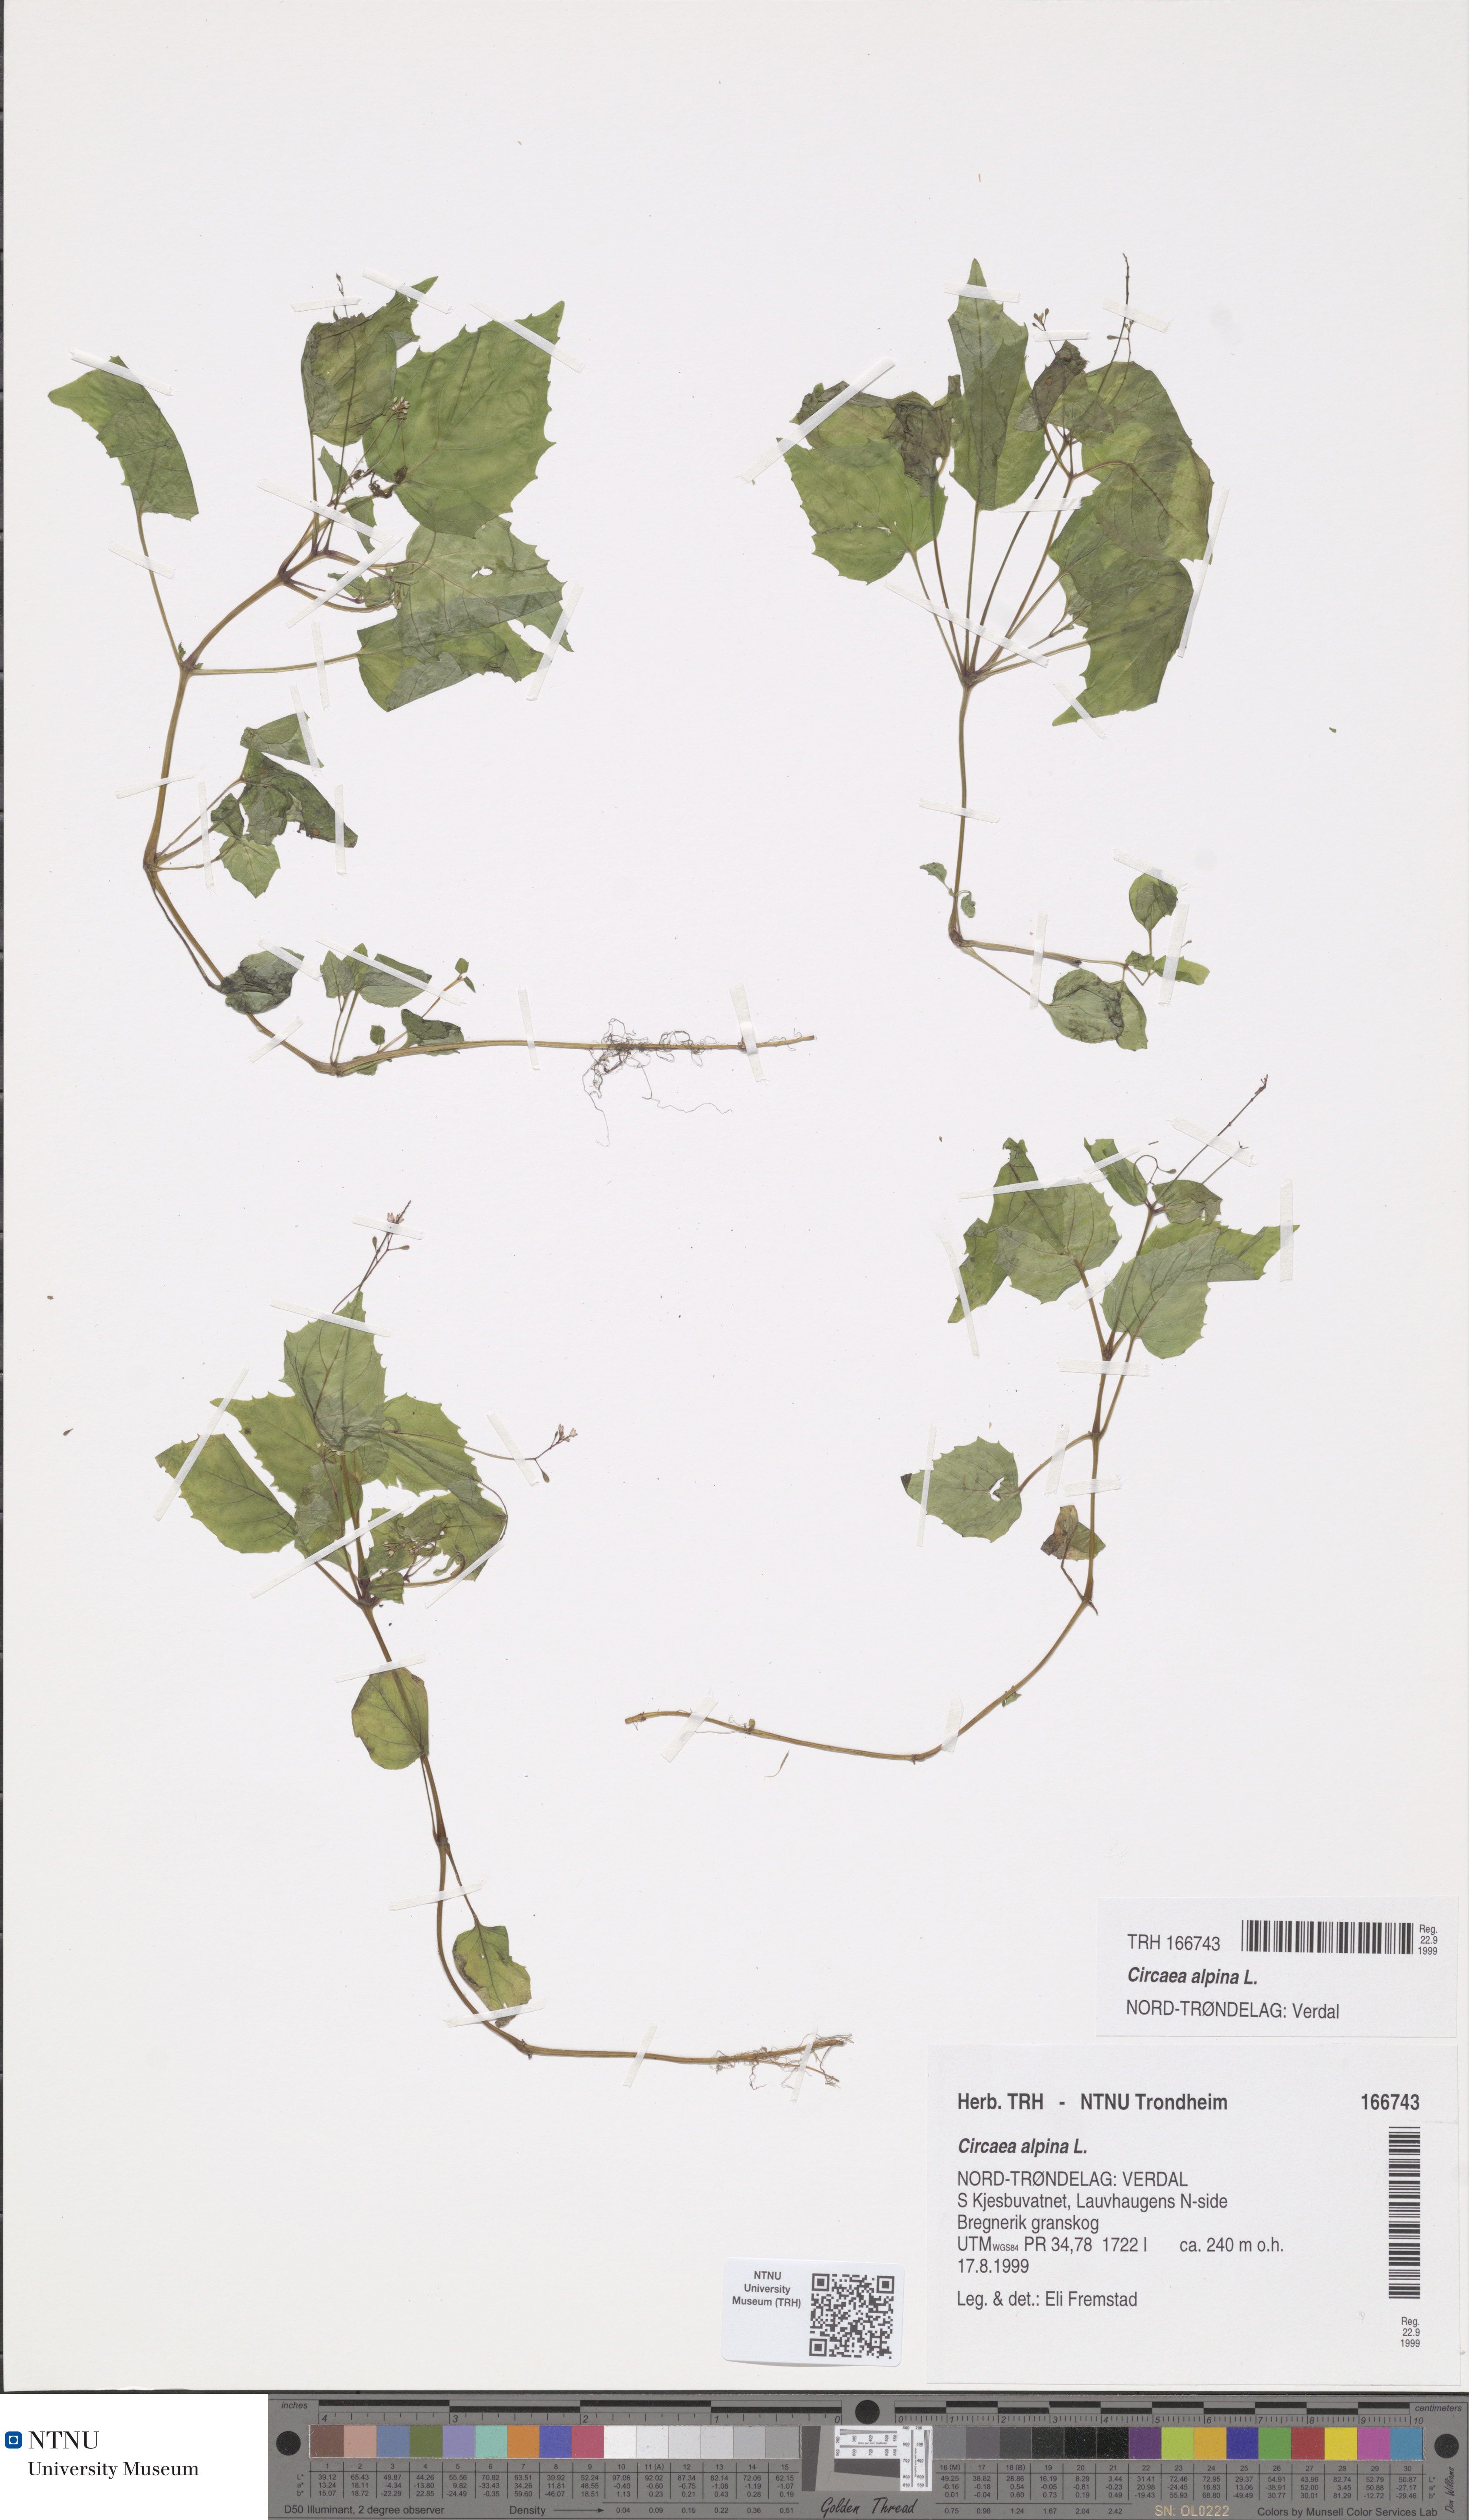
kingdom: Plantae
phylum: Tracheophyta
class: Magnoliopsida
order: Myrtales
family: Onagraceae
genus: Circaea
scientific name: Circaea alpina
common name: Alpine enchanter's-nightshade
